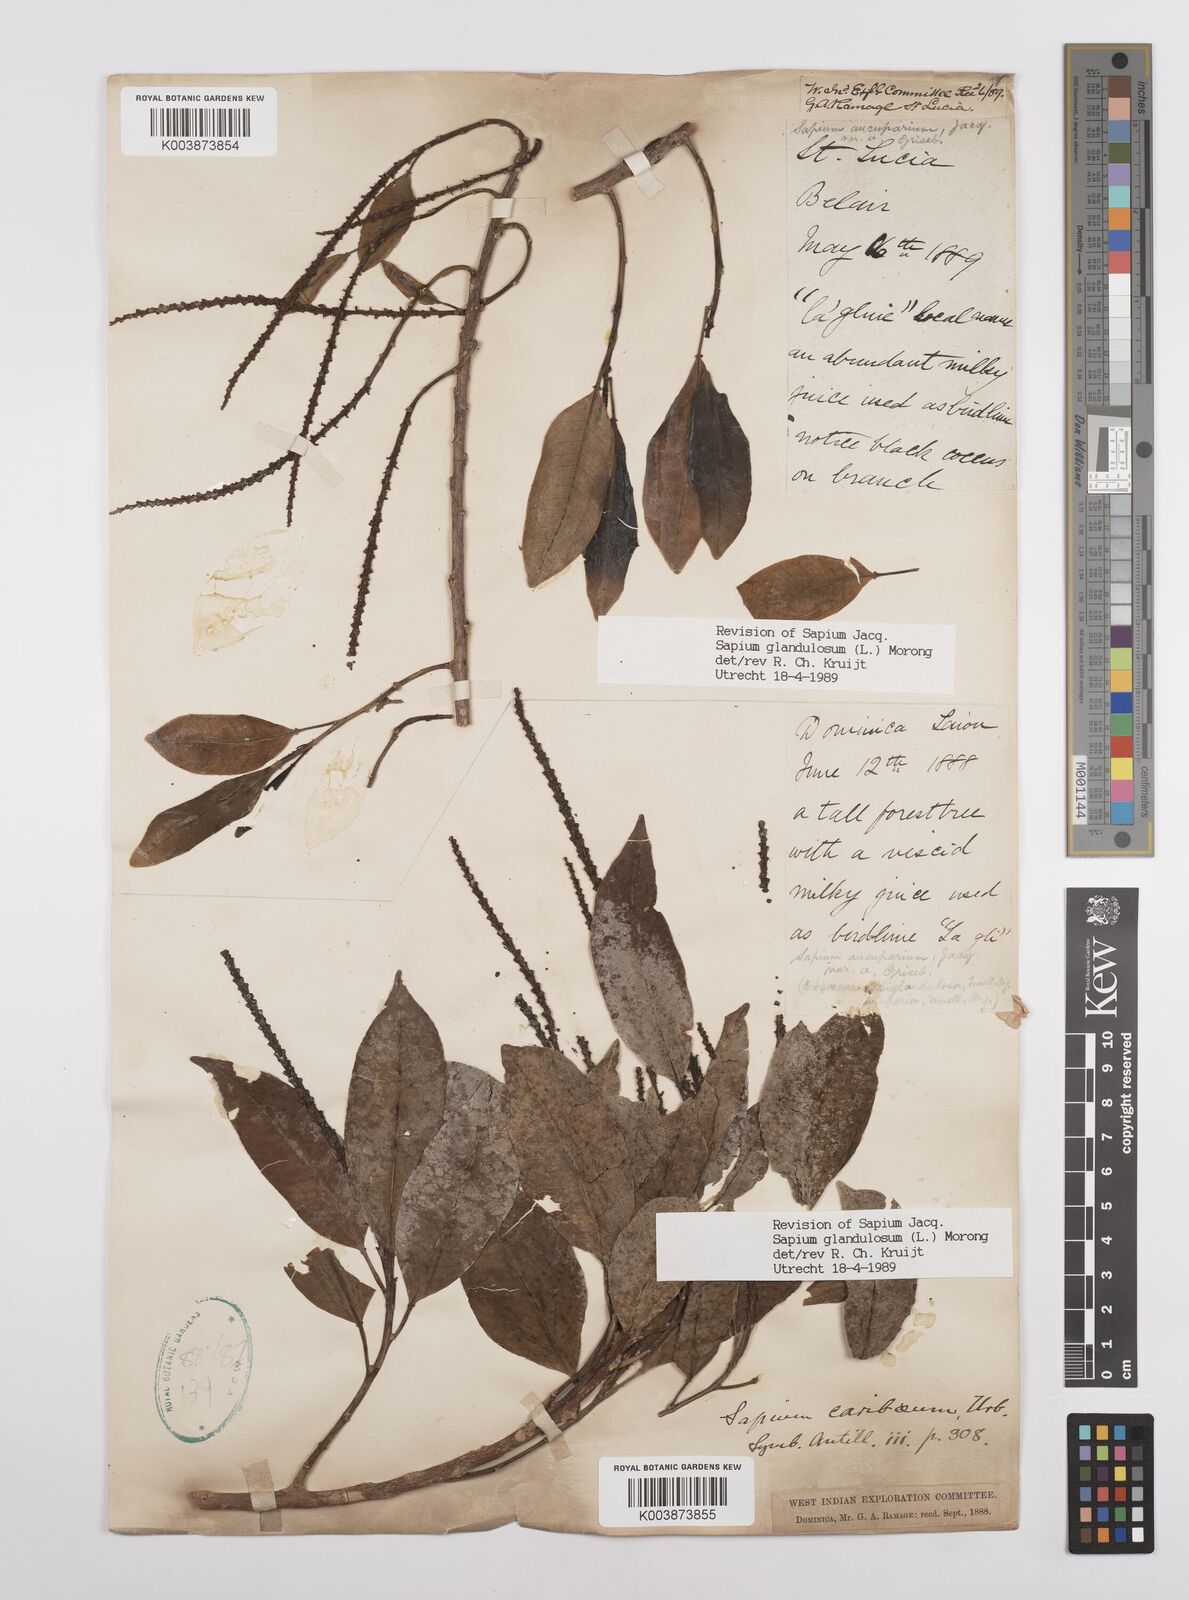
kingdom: Plantae
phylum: Tracheophyta
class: Magnoliopsida
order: Malpighiales
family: Euphorbiaceae
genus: Sapium
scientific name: Sapium glandulosum
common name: Milktree
